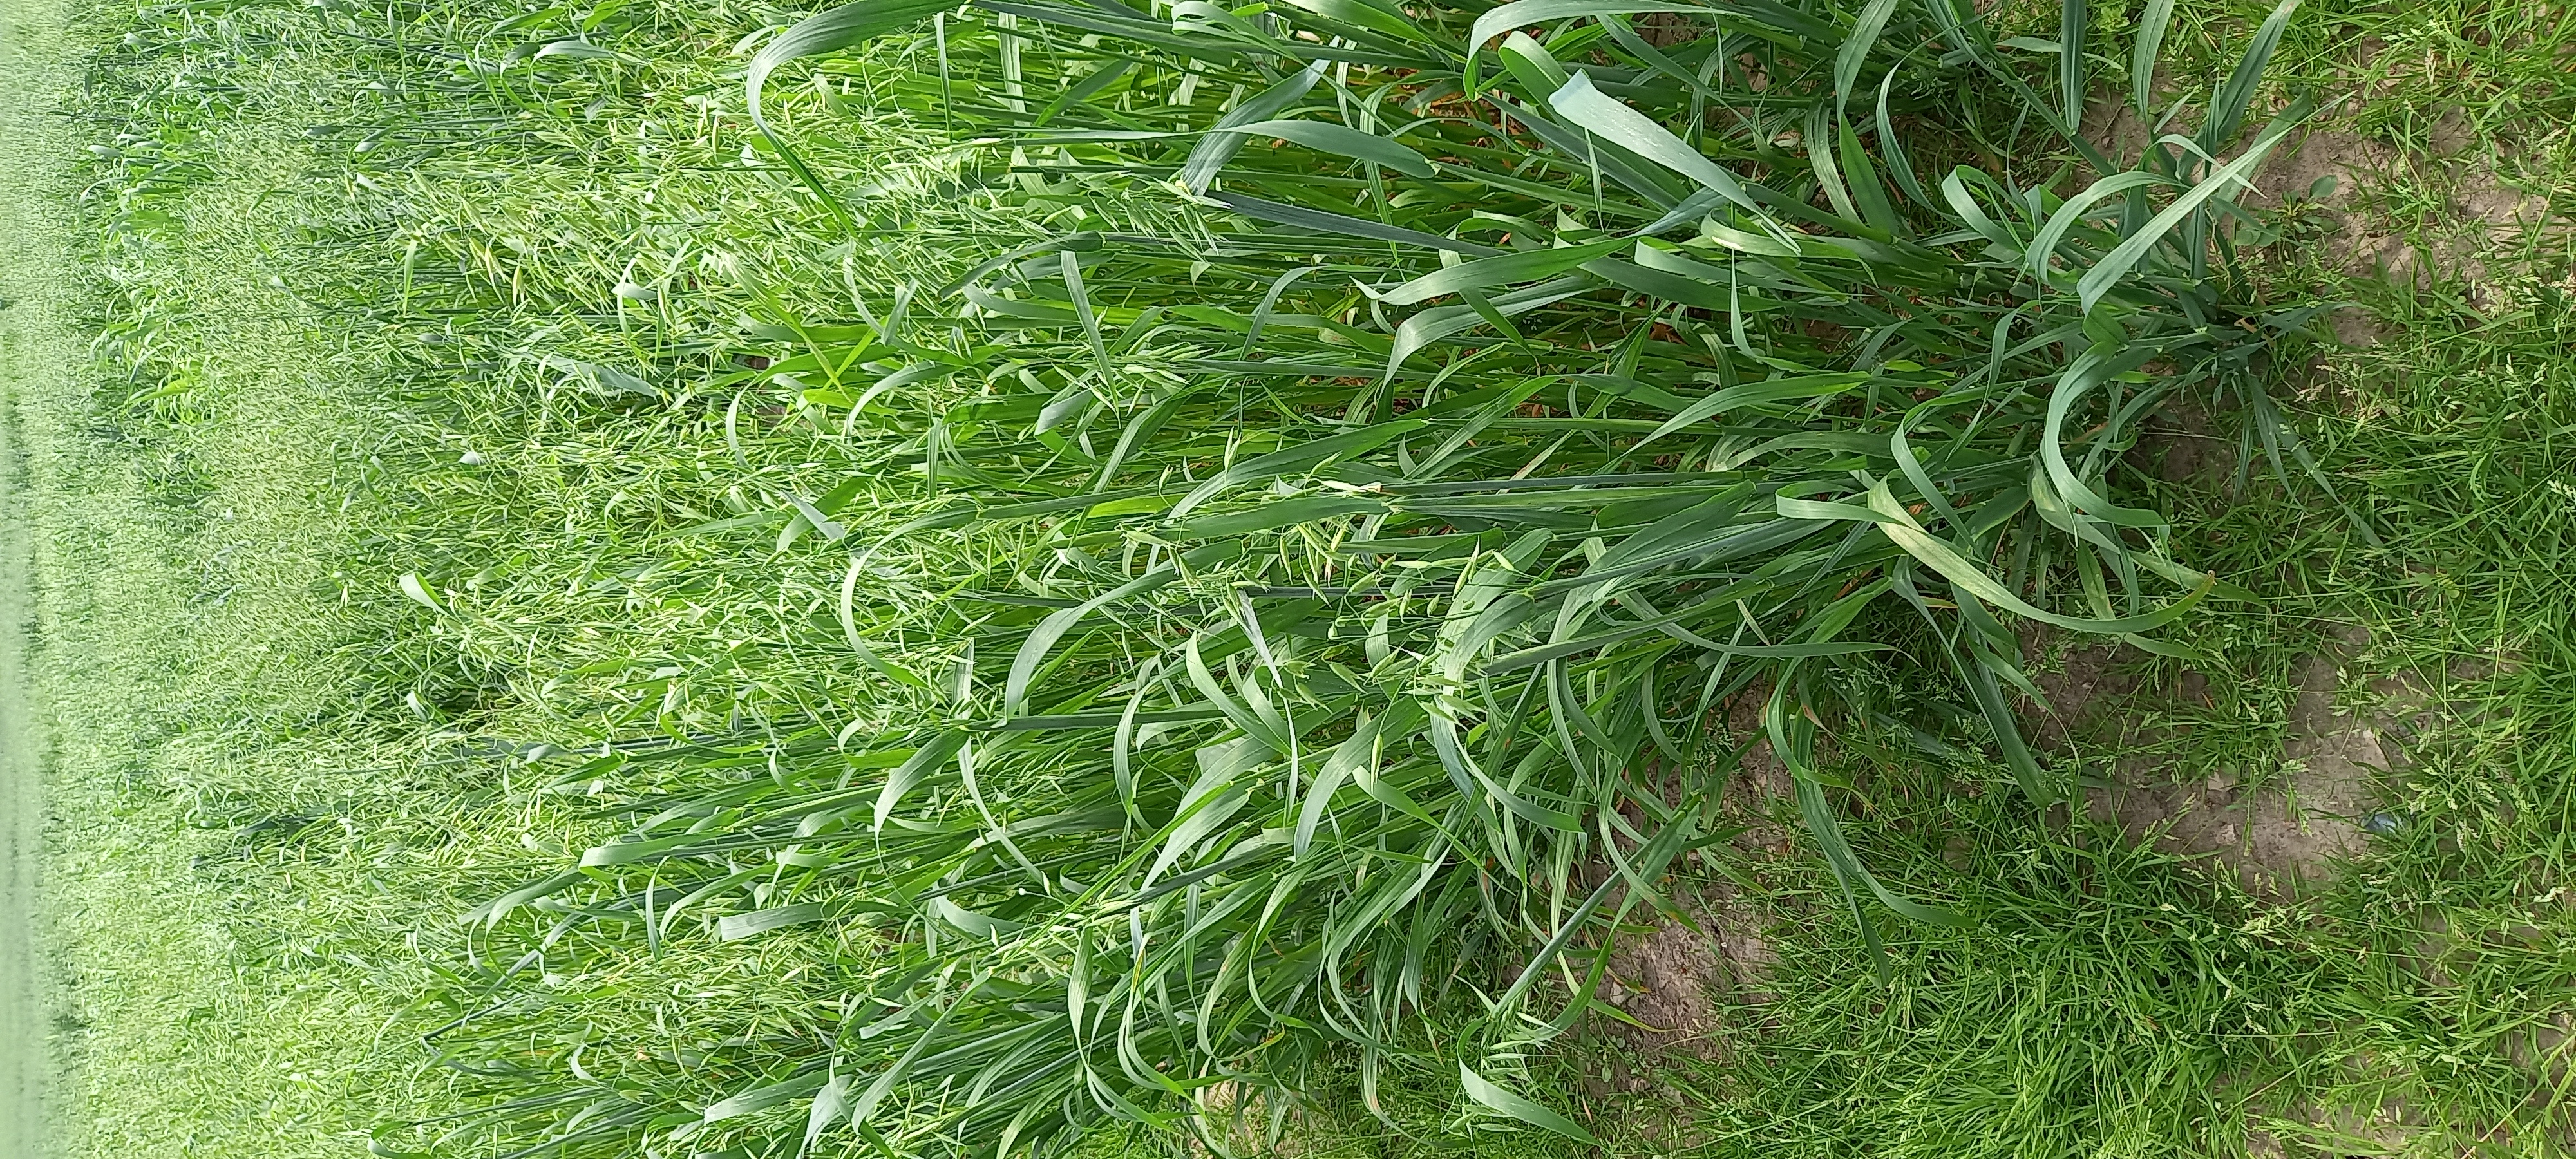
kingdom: Plantae
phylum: Tracheophyta
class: Liliopsida
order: Poales
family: Poaceae
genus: Avena
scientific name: Avena sativa
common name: Oat
